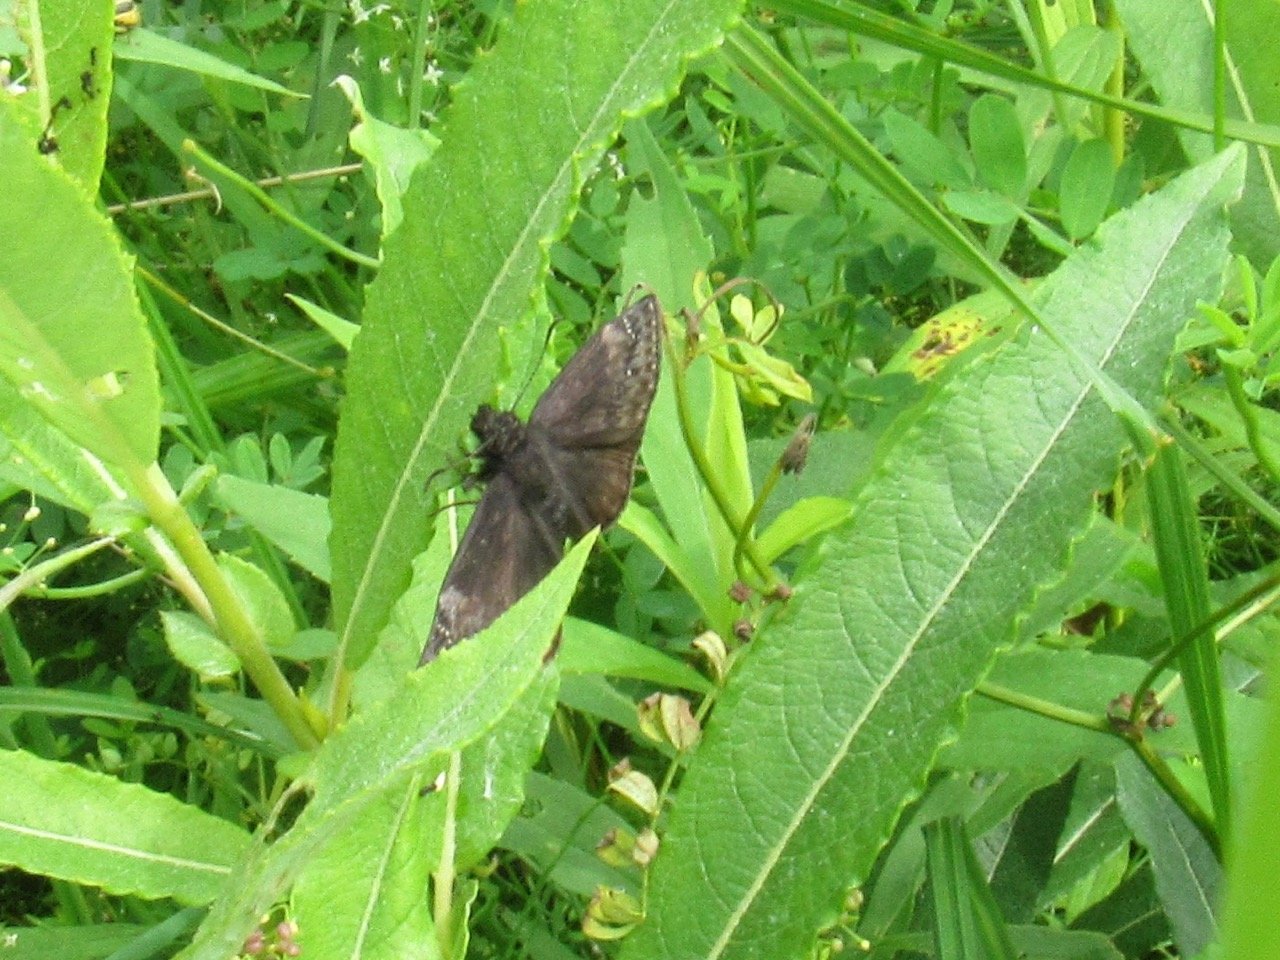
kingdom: Animalia
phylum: Arthropoda
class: Insecta
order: Lepidoptera
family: Hesperiidae
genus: Gesta
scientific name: Gesta
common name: Wild Indigo Duskywing
